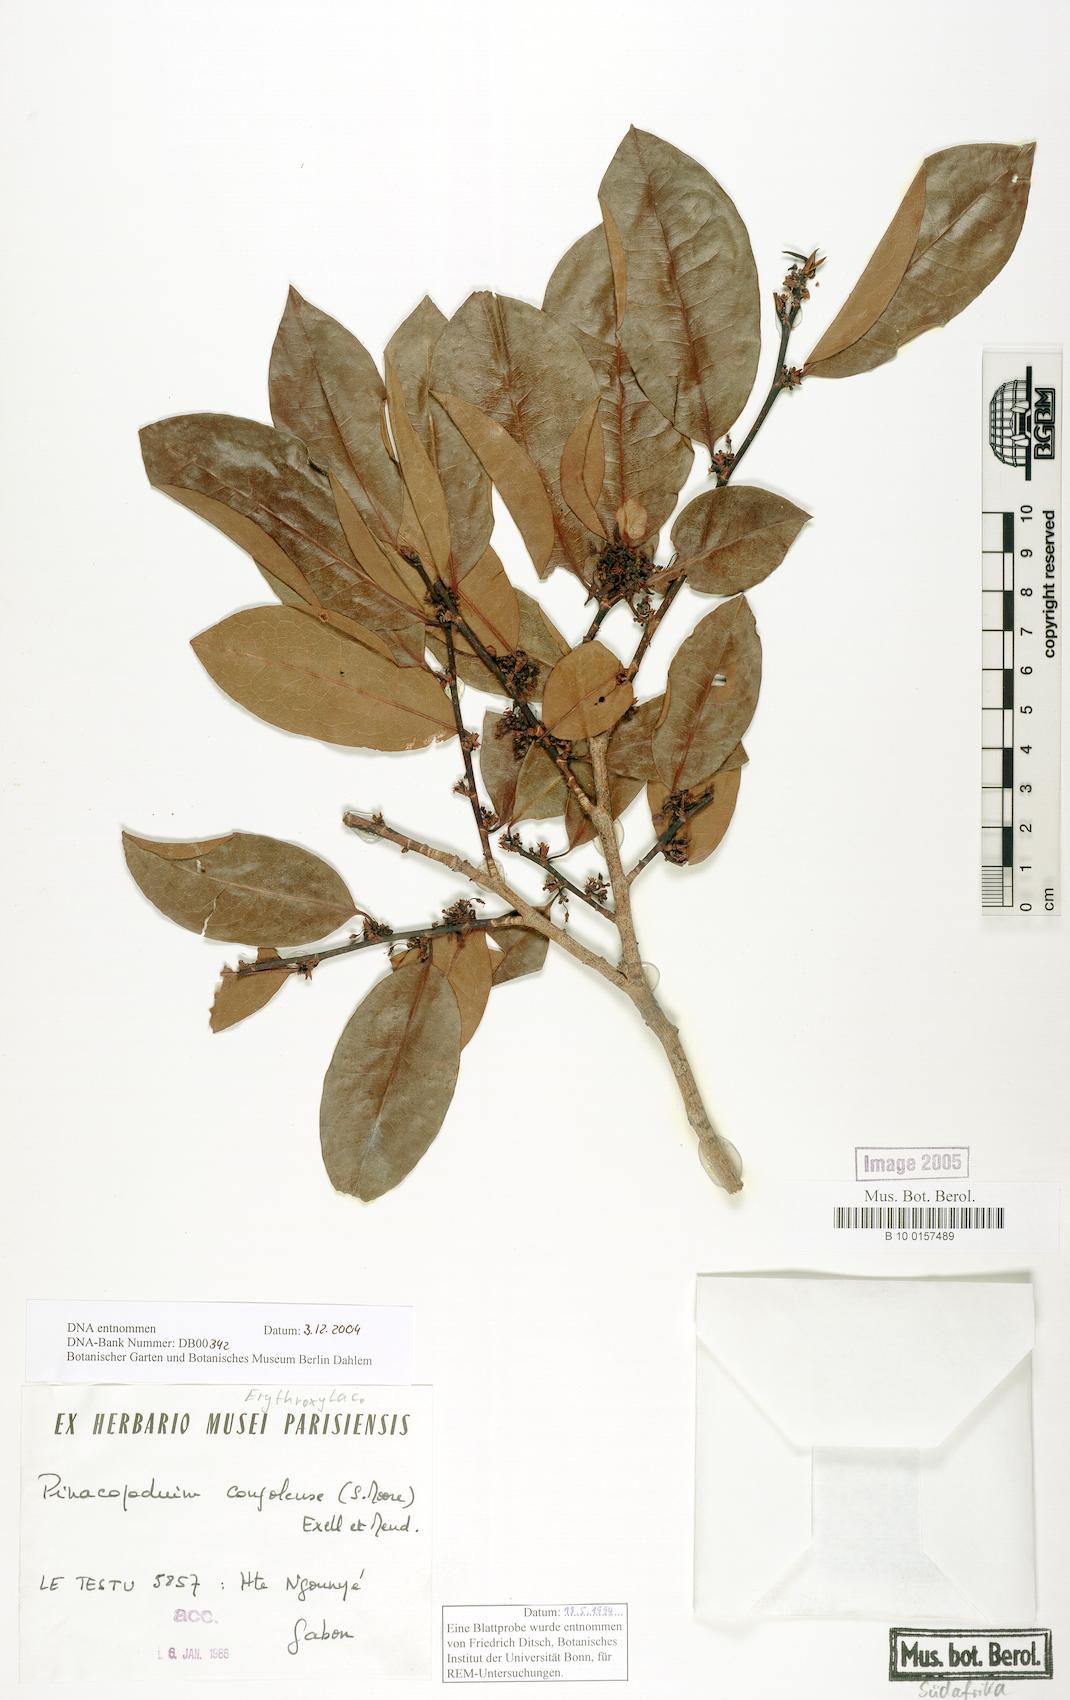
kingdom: Plantae
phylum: Tracheophyta
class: Magnoliopsida
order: Malpighiales
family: Erythroxylaceae
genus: Pinacopodium
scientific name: Pinacopodium congolense
